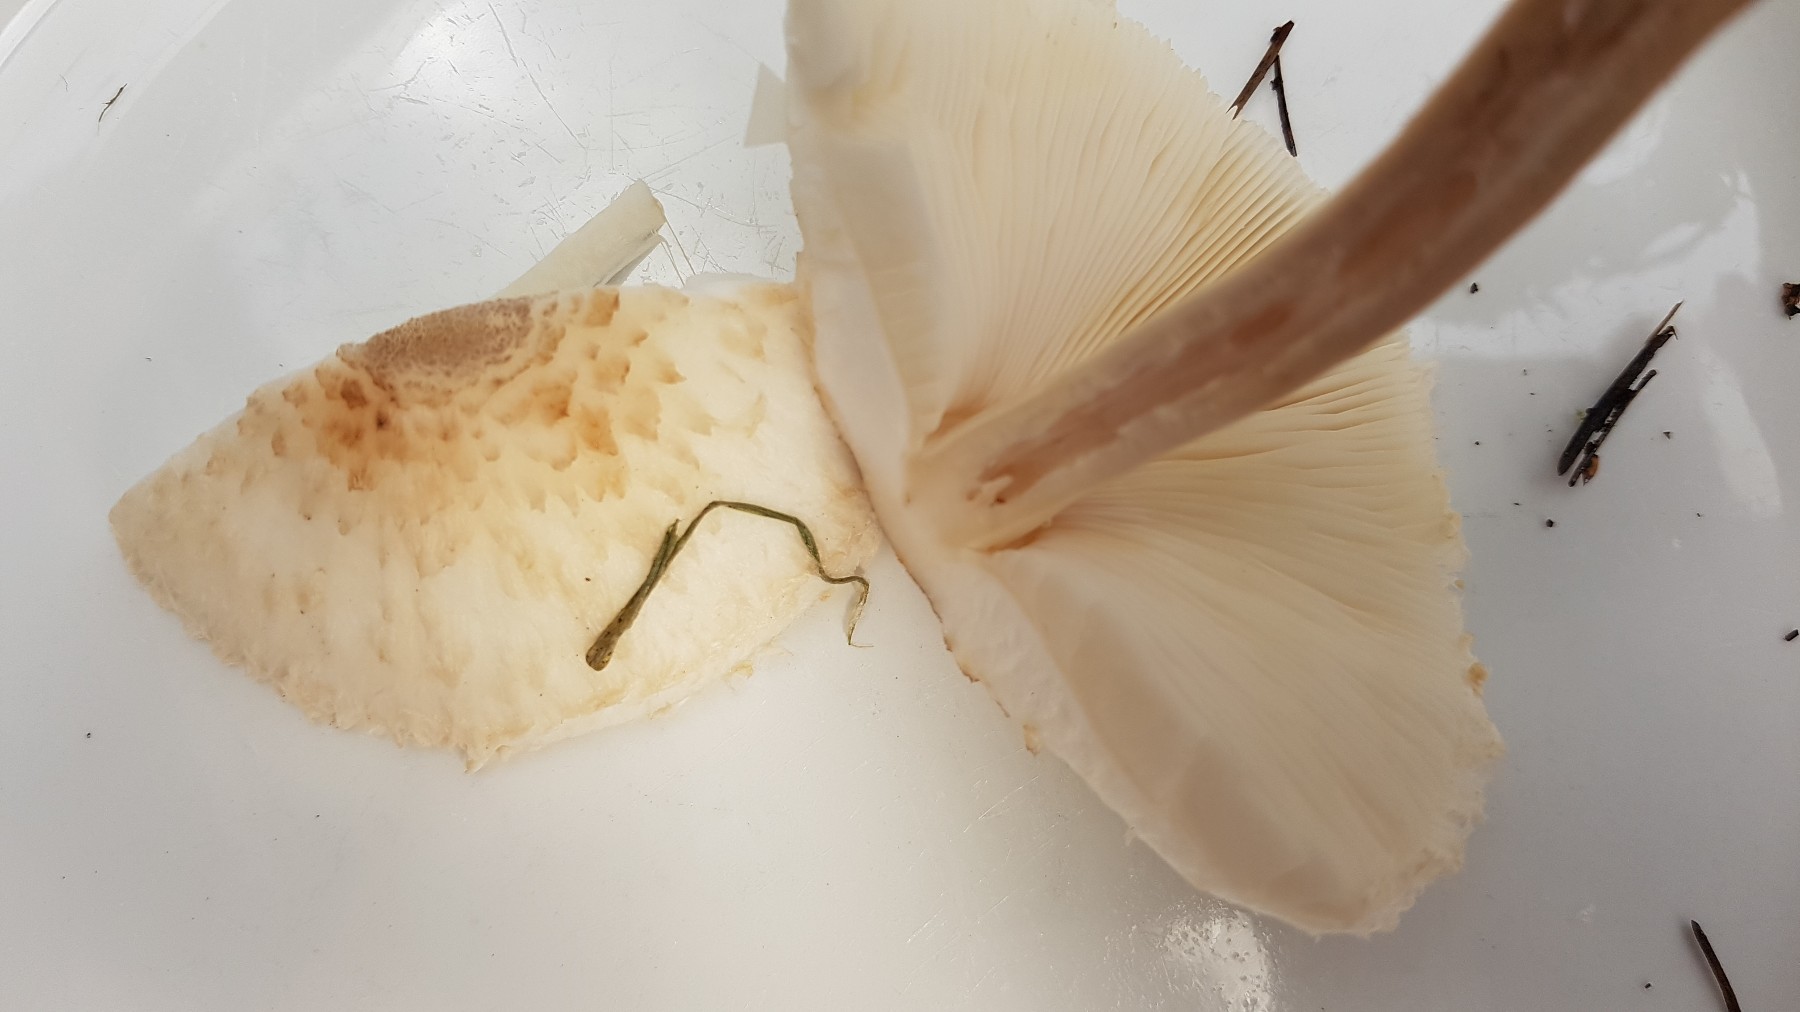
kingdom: Fungi
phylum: Basidiomycota
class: Agaricomycetes
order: Agaricales
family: Agaricaceae
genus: Leucoagaricus
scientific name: Leucoagaricus nympharum
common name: gran-silkehat
